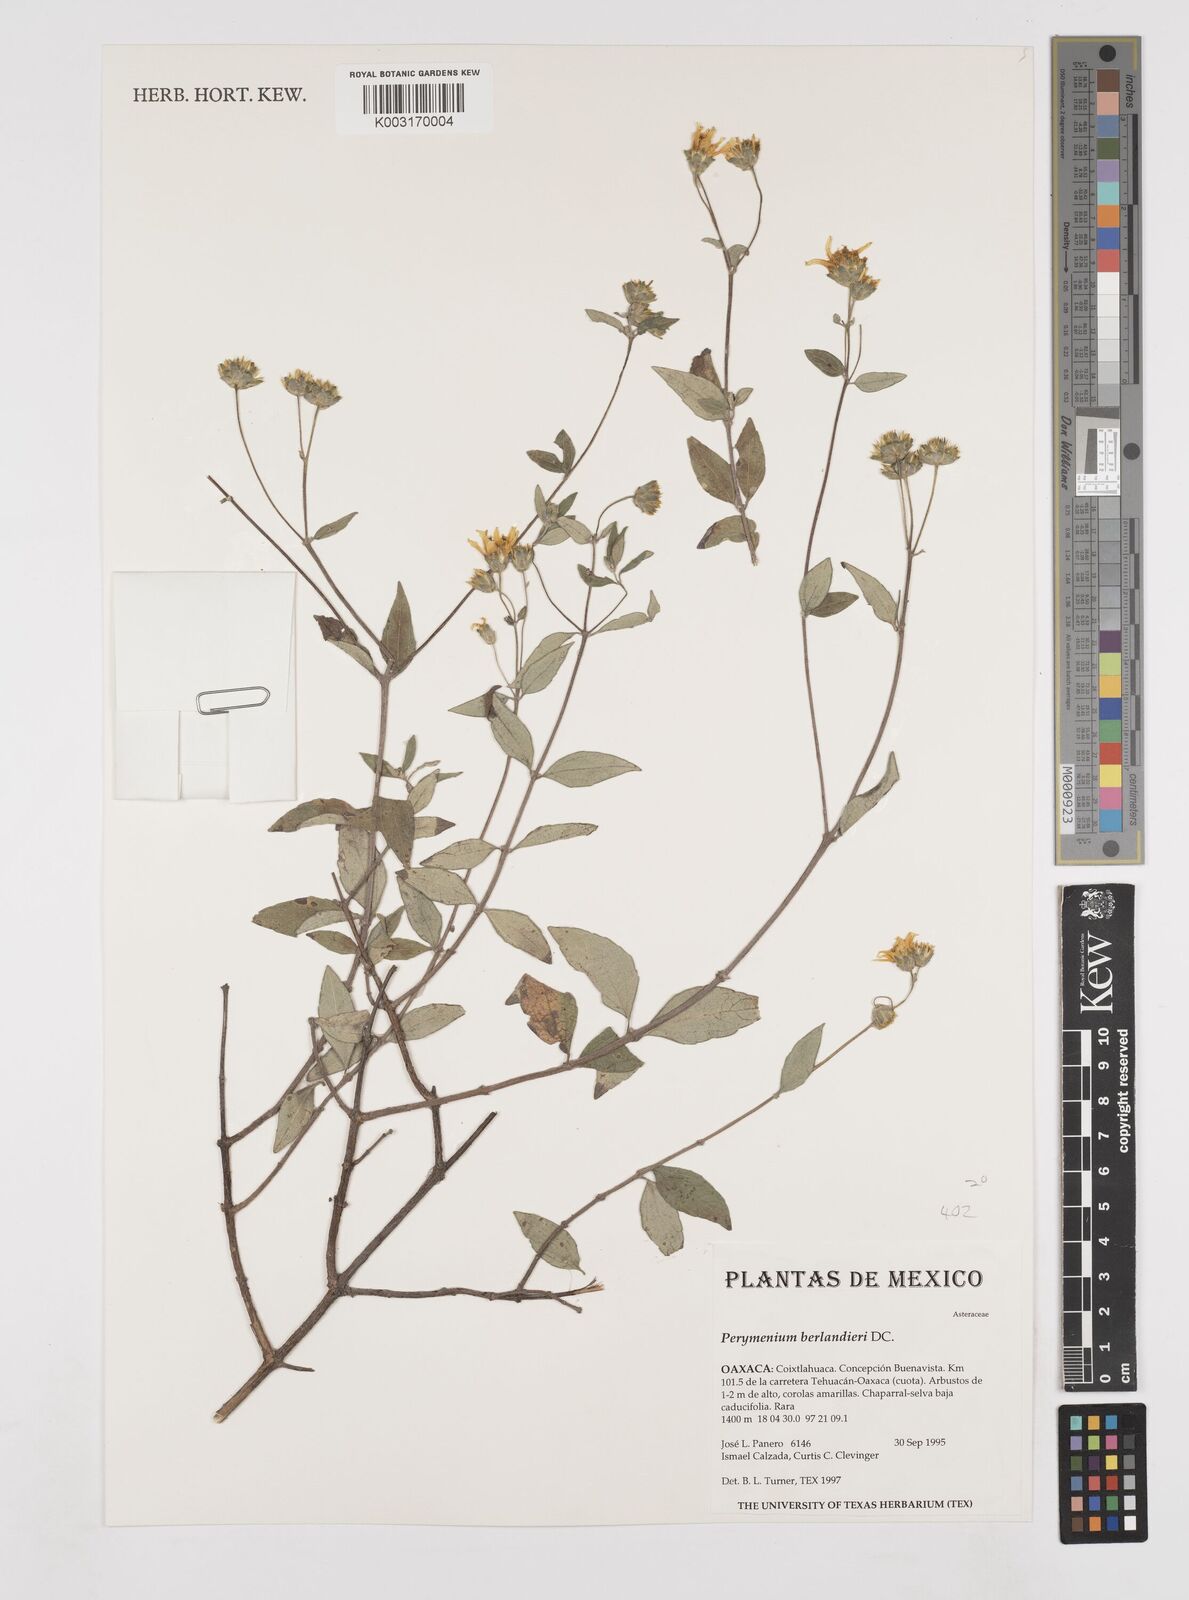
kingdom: Plantae
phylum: Tracheophyta
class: Magnoliopsida
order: Asterales
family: Asteraceae
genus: Perymenium
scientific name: Perymenium berlandieri
